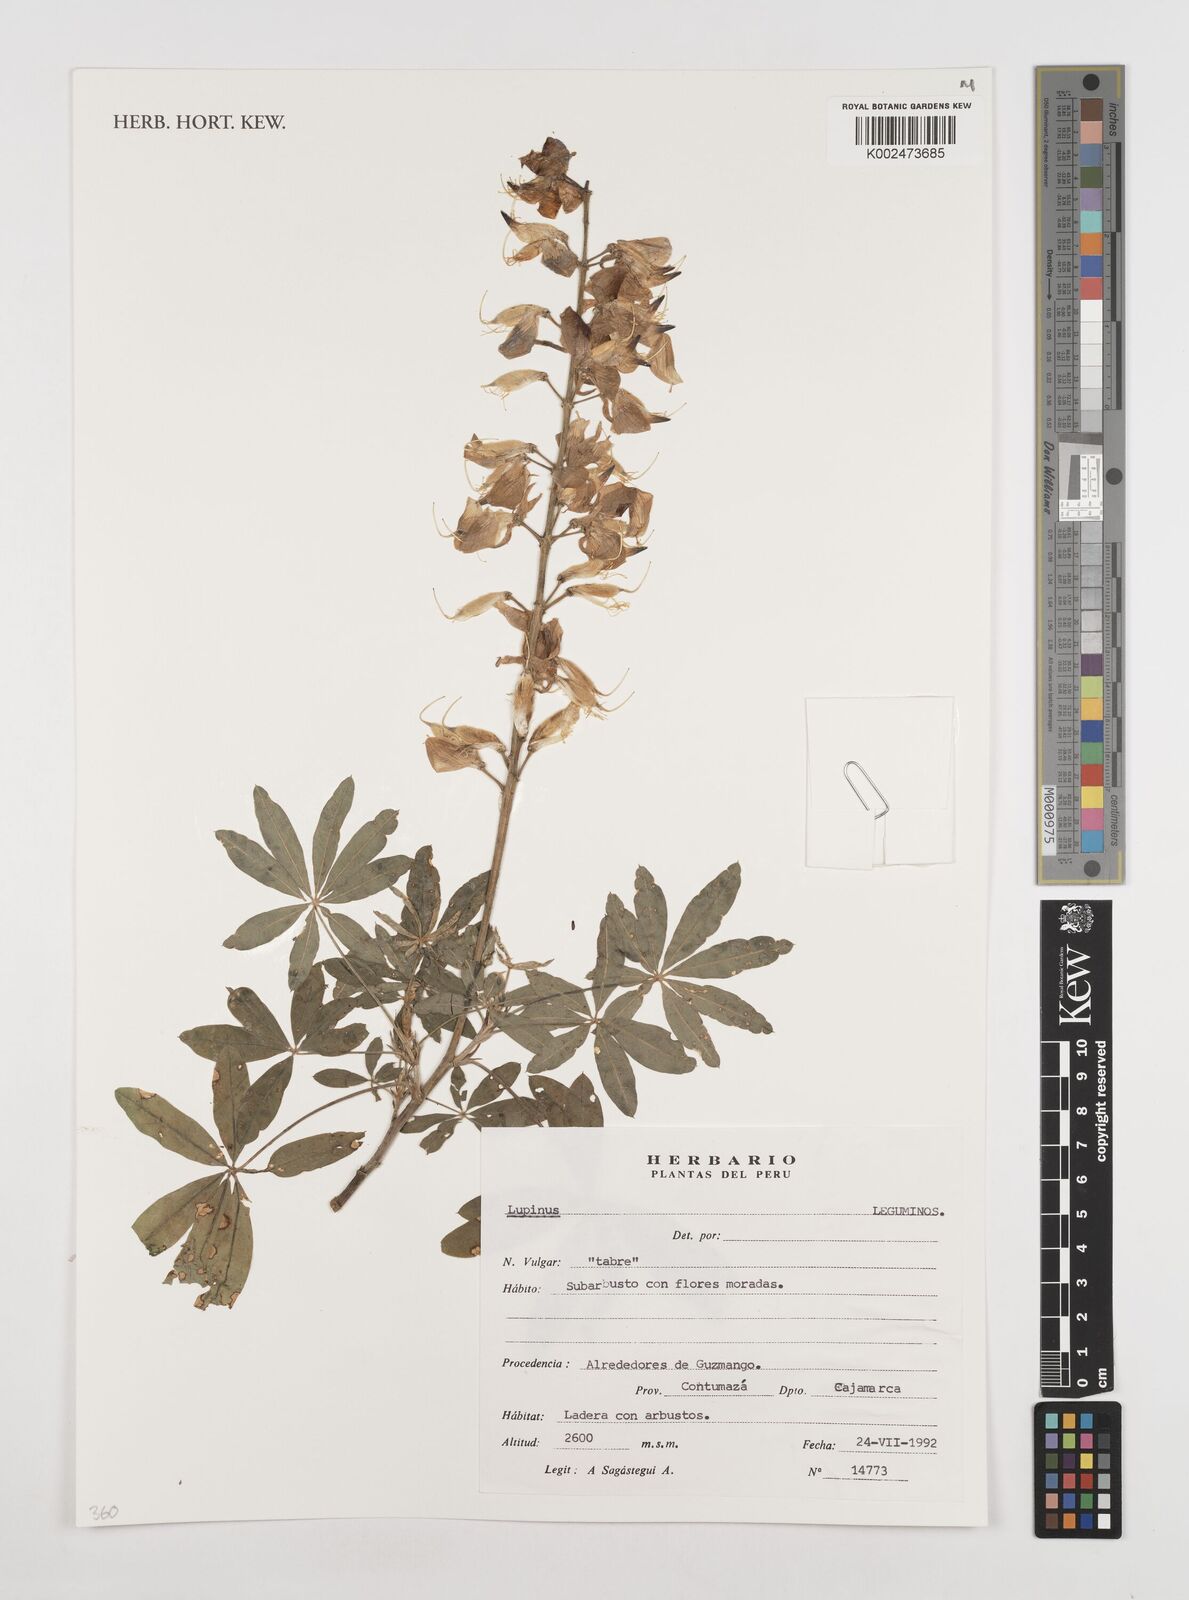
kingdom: Plantae
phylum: Tracheophyta
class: Magnoliopsida
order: Fabales
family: Fabaceae
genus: Lupinus
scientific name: Lupinus
